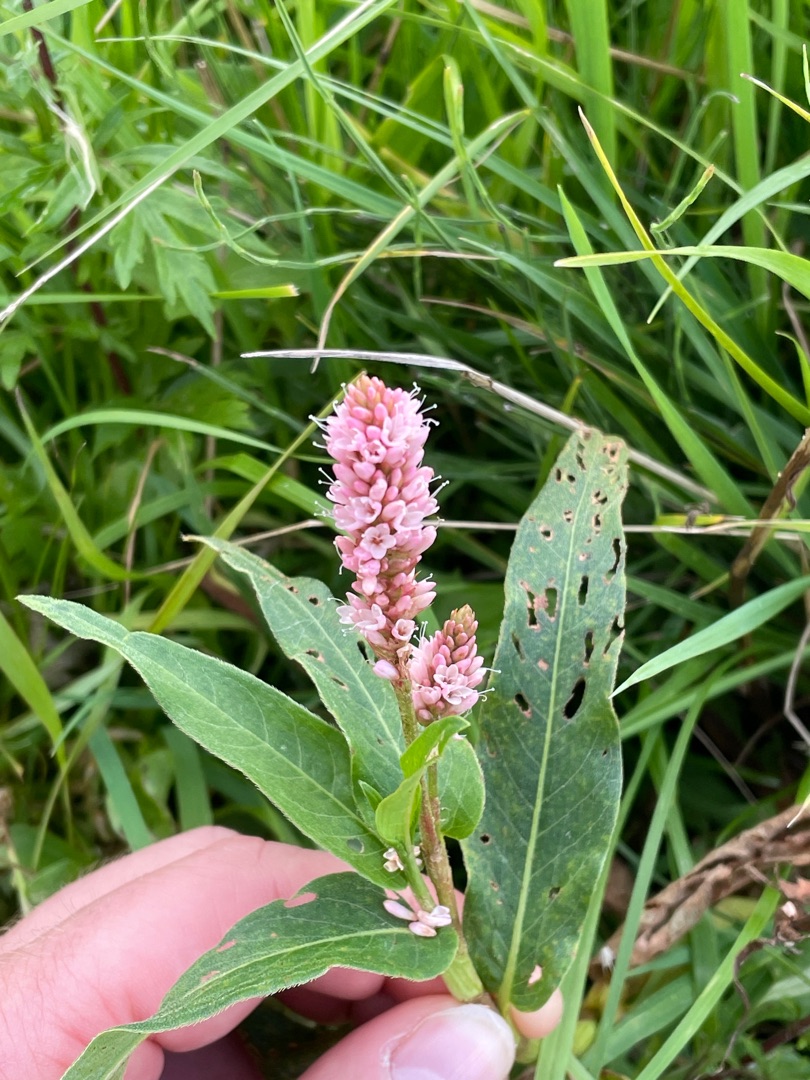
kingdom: Plantae
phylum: Tracheophyta
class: Magnoliopsida
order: Caryophyllales
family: Polygonaceae
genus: Persicaria
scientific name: Persicaria amphibia
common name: Vand-pileurt
